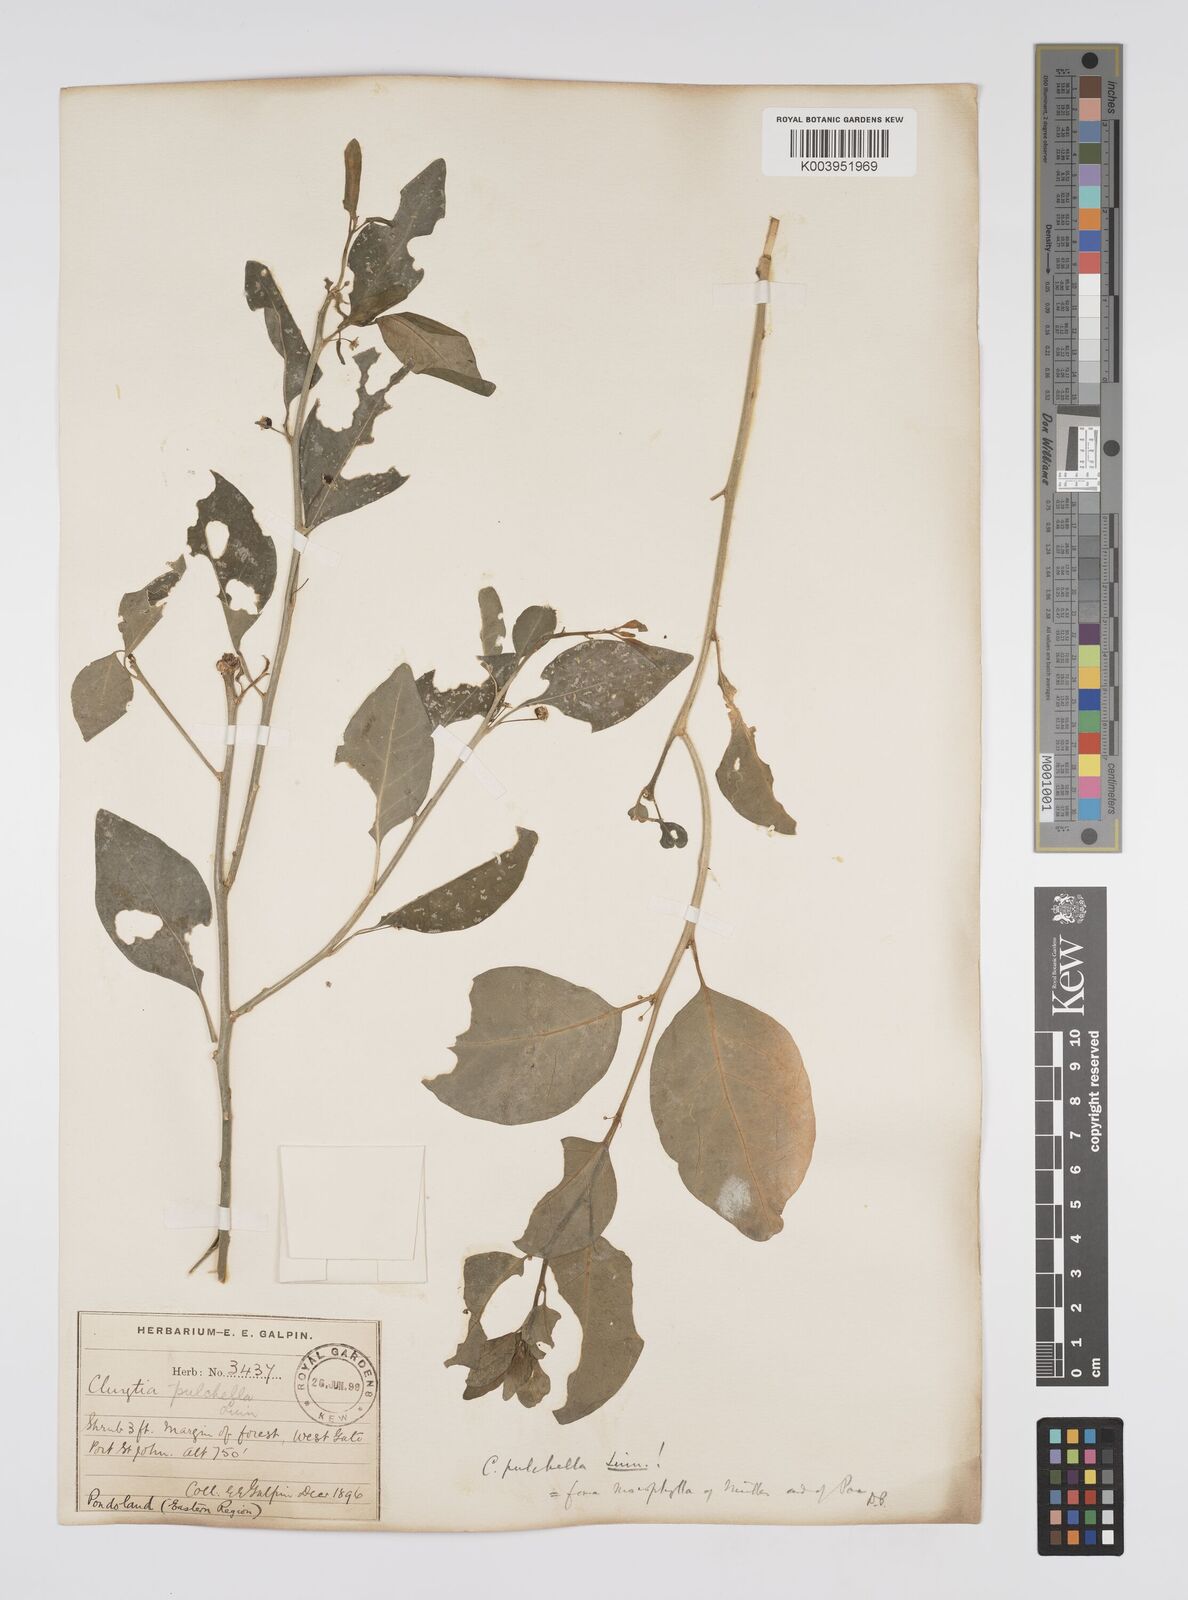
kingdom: Plantae
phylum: Tracheophyta
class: Magnoliopsida
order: Malpighiales
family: Peraceae
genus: Clutia
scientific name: Clutia pulchella
